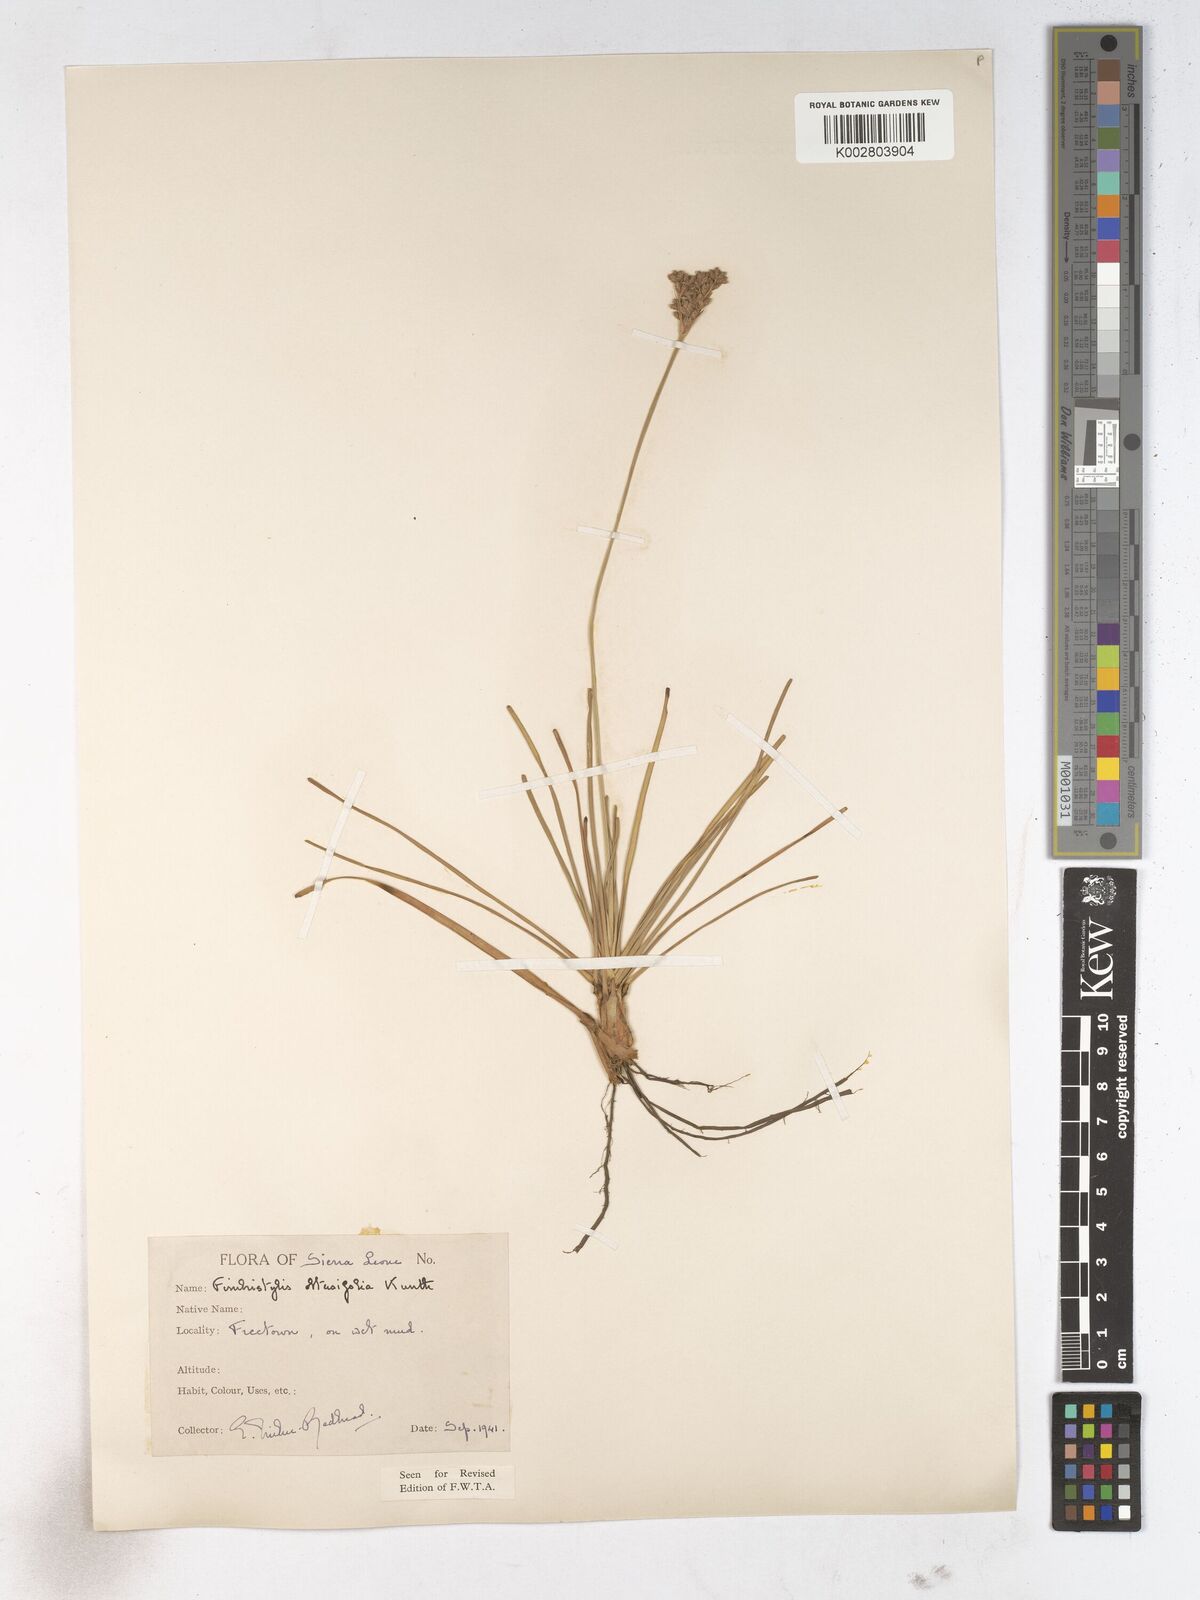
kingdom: Plantae
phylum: Tracheophyta
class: Liliopsida
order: Poales
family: Cyperaceae
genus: Fimbristylis
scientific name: Fimbristylis cymosa
